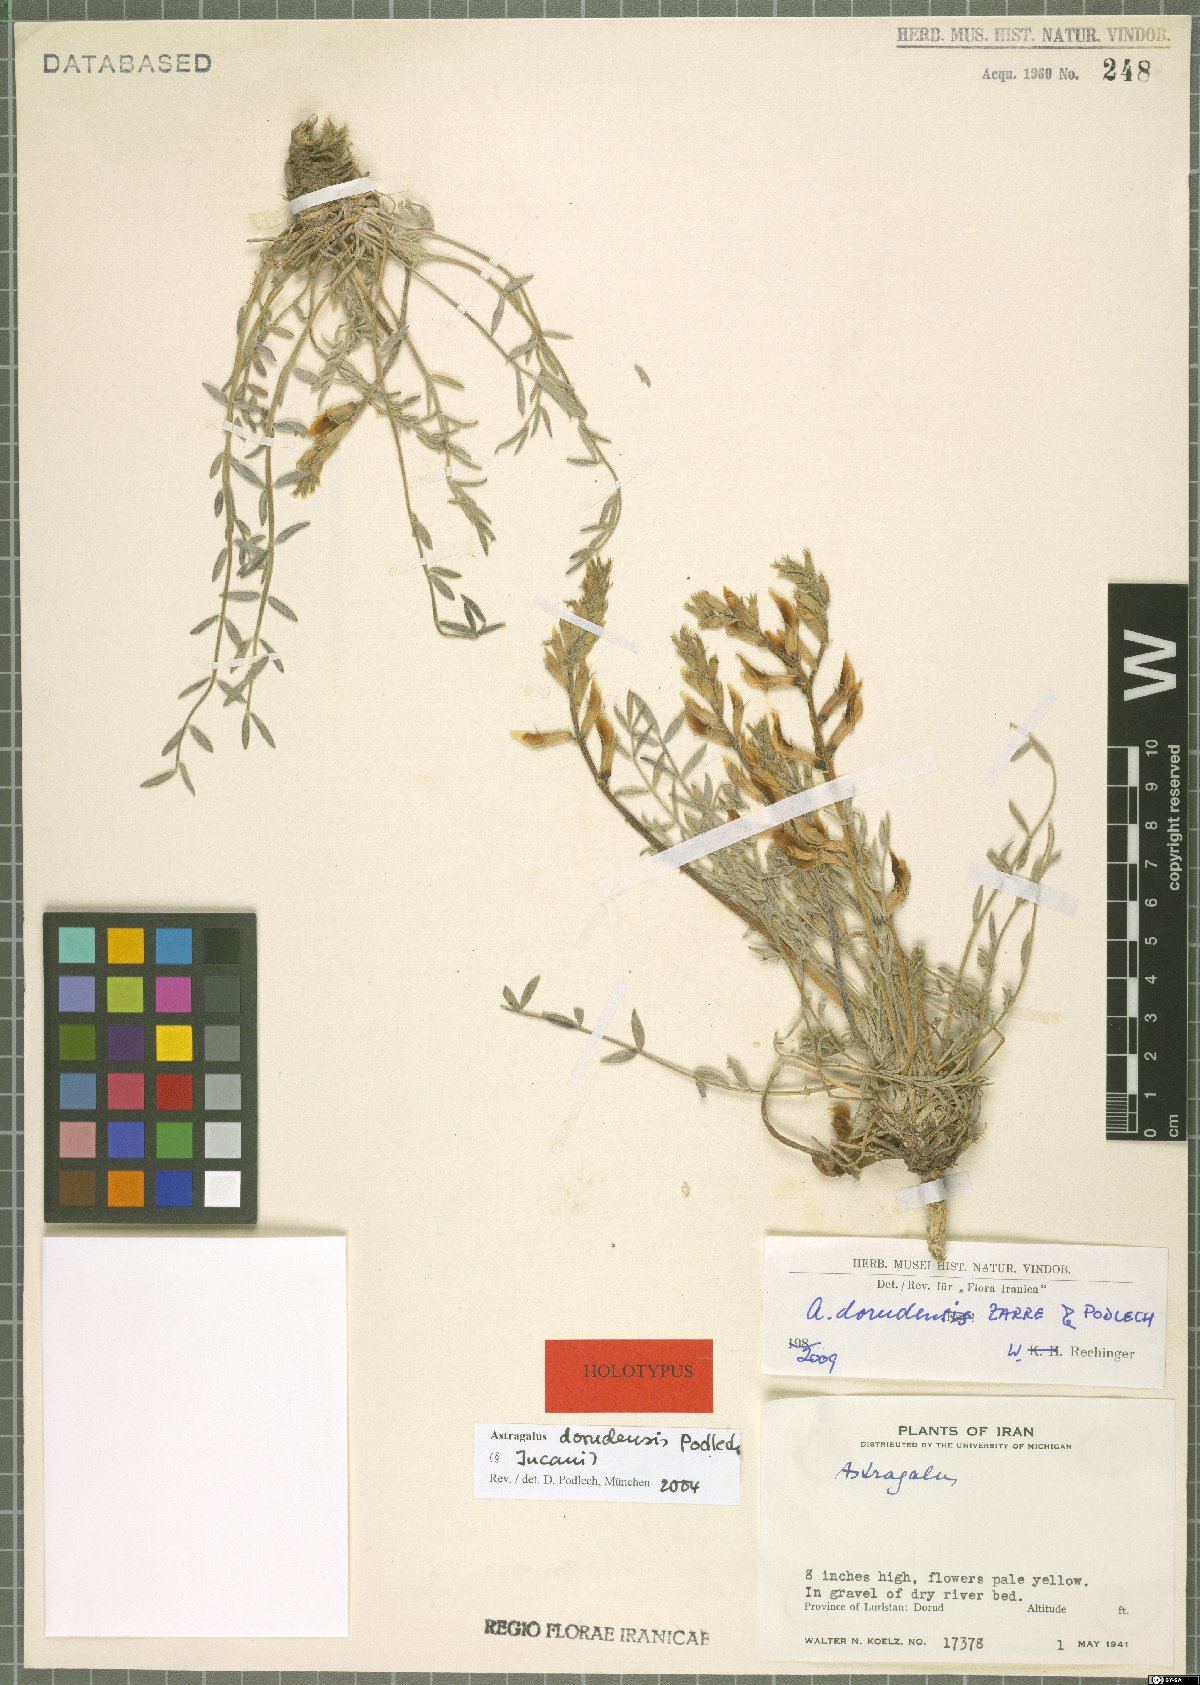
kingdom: Plantae
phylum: Tracheophyta
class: Magnoliopsida
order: Fabales
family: Fabaceae
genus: Astragalus
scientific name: Astragalus dorudensis
